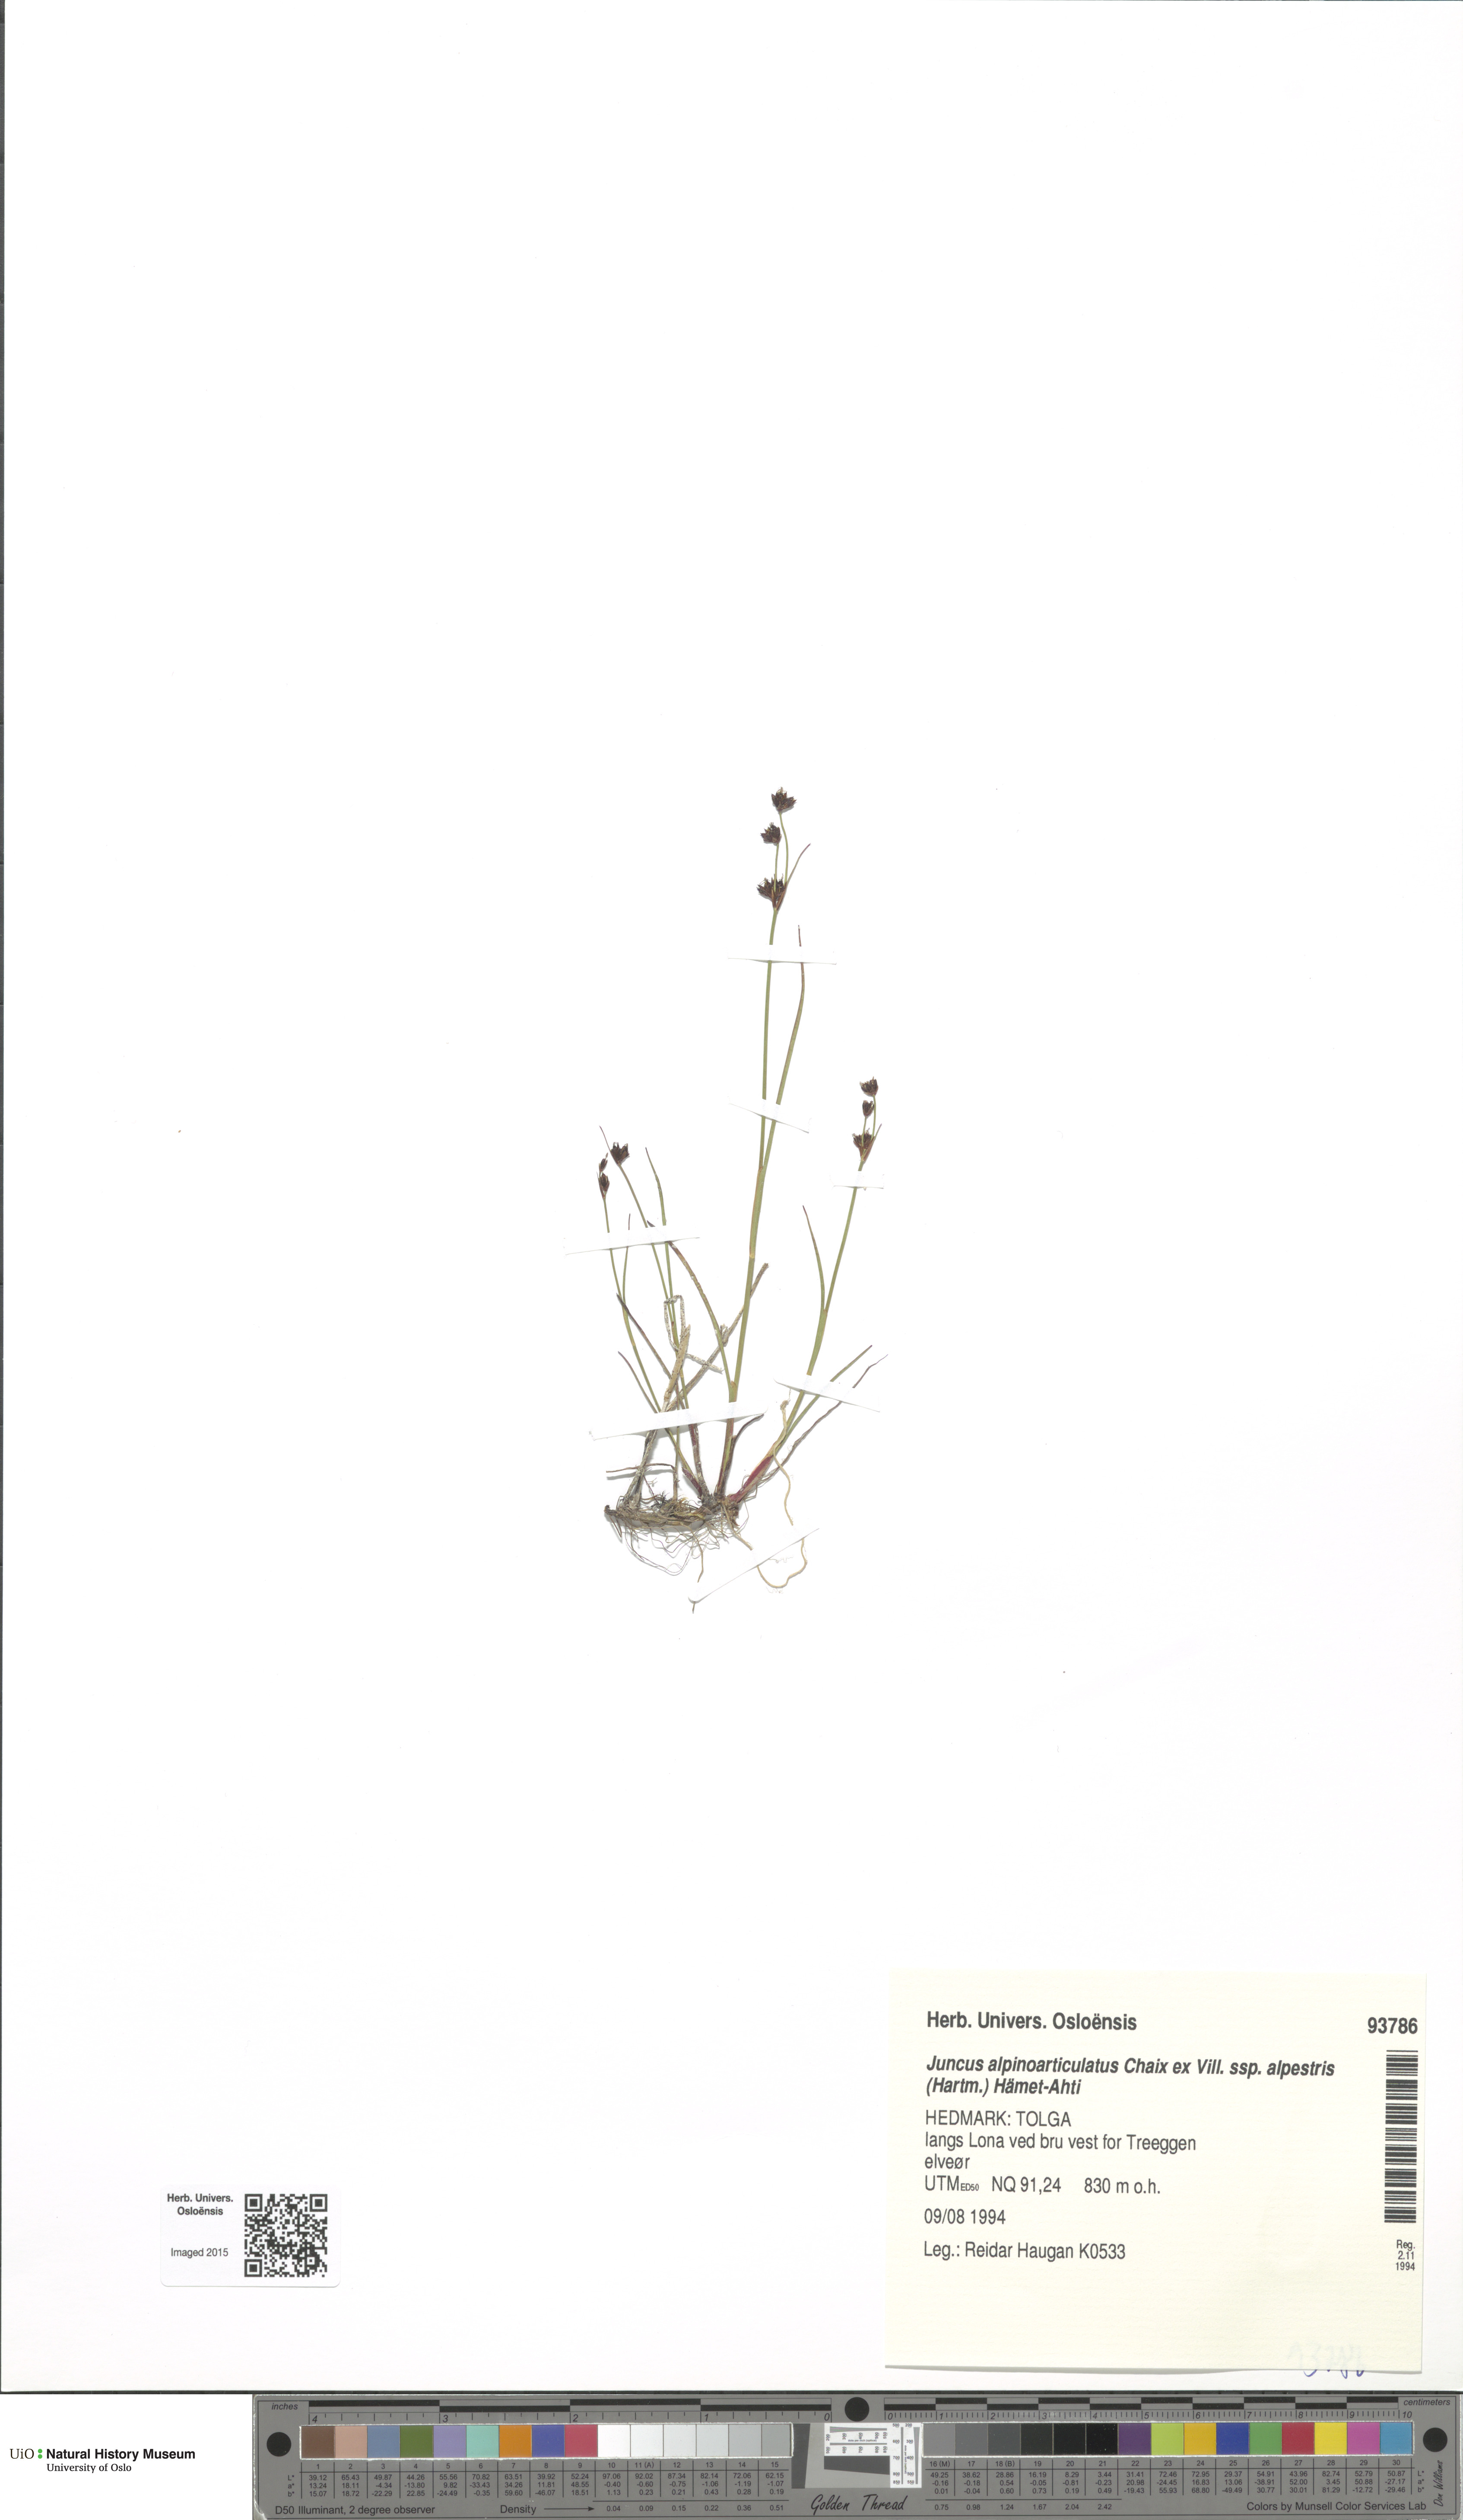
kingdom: Plantae
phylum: Tracheophyta
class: Liliopsida
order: Poales
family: Juncaceae
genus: Juncus
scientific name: Juncus alpinoarticulatus
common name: Alpine rush
